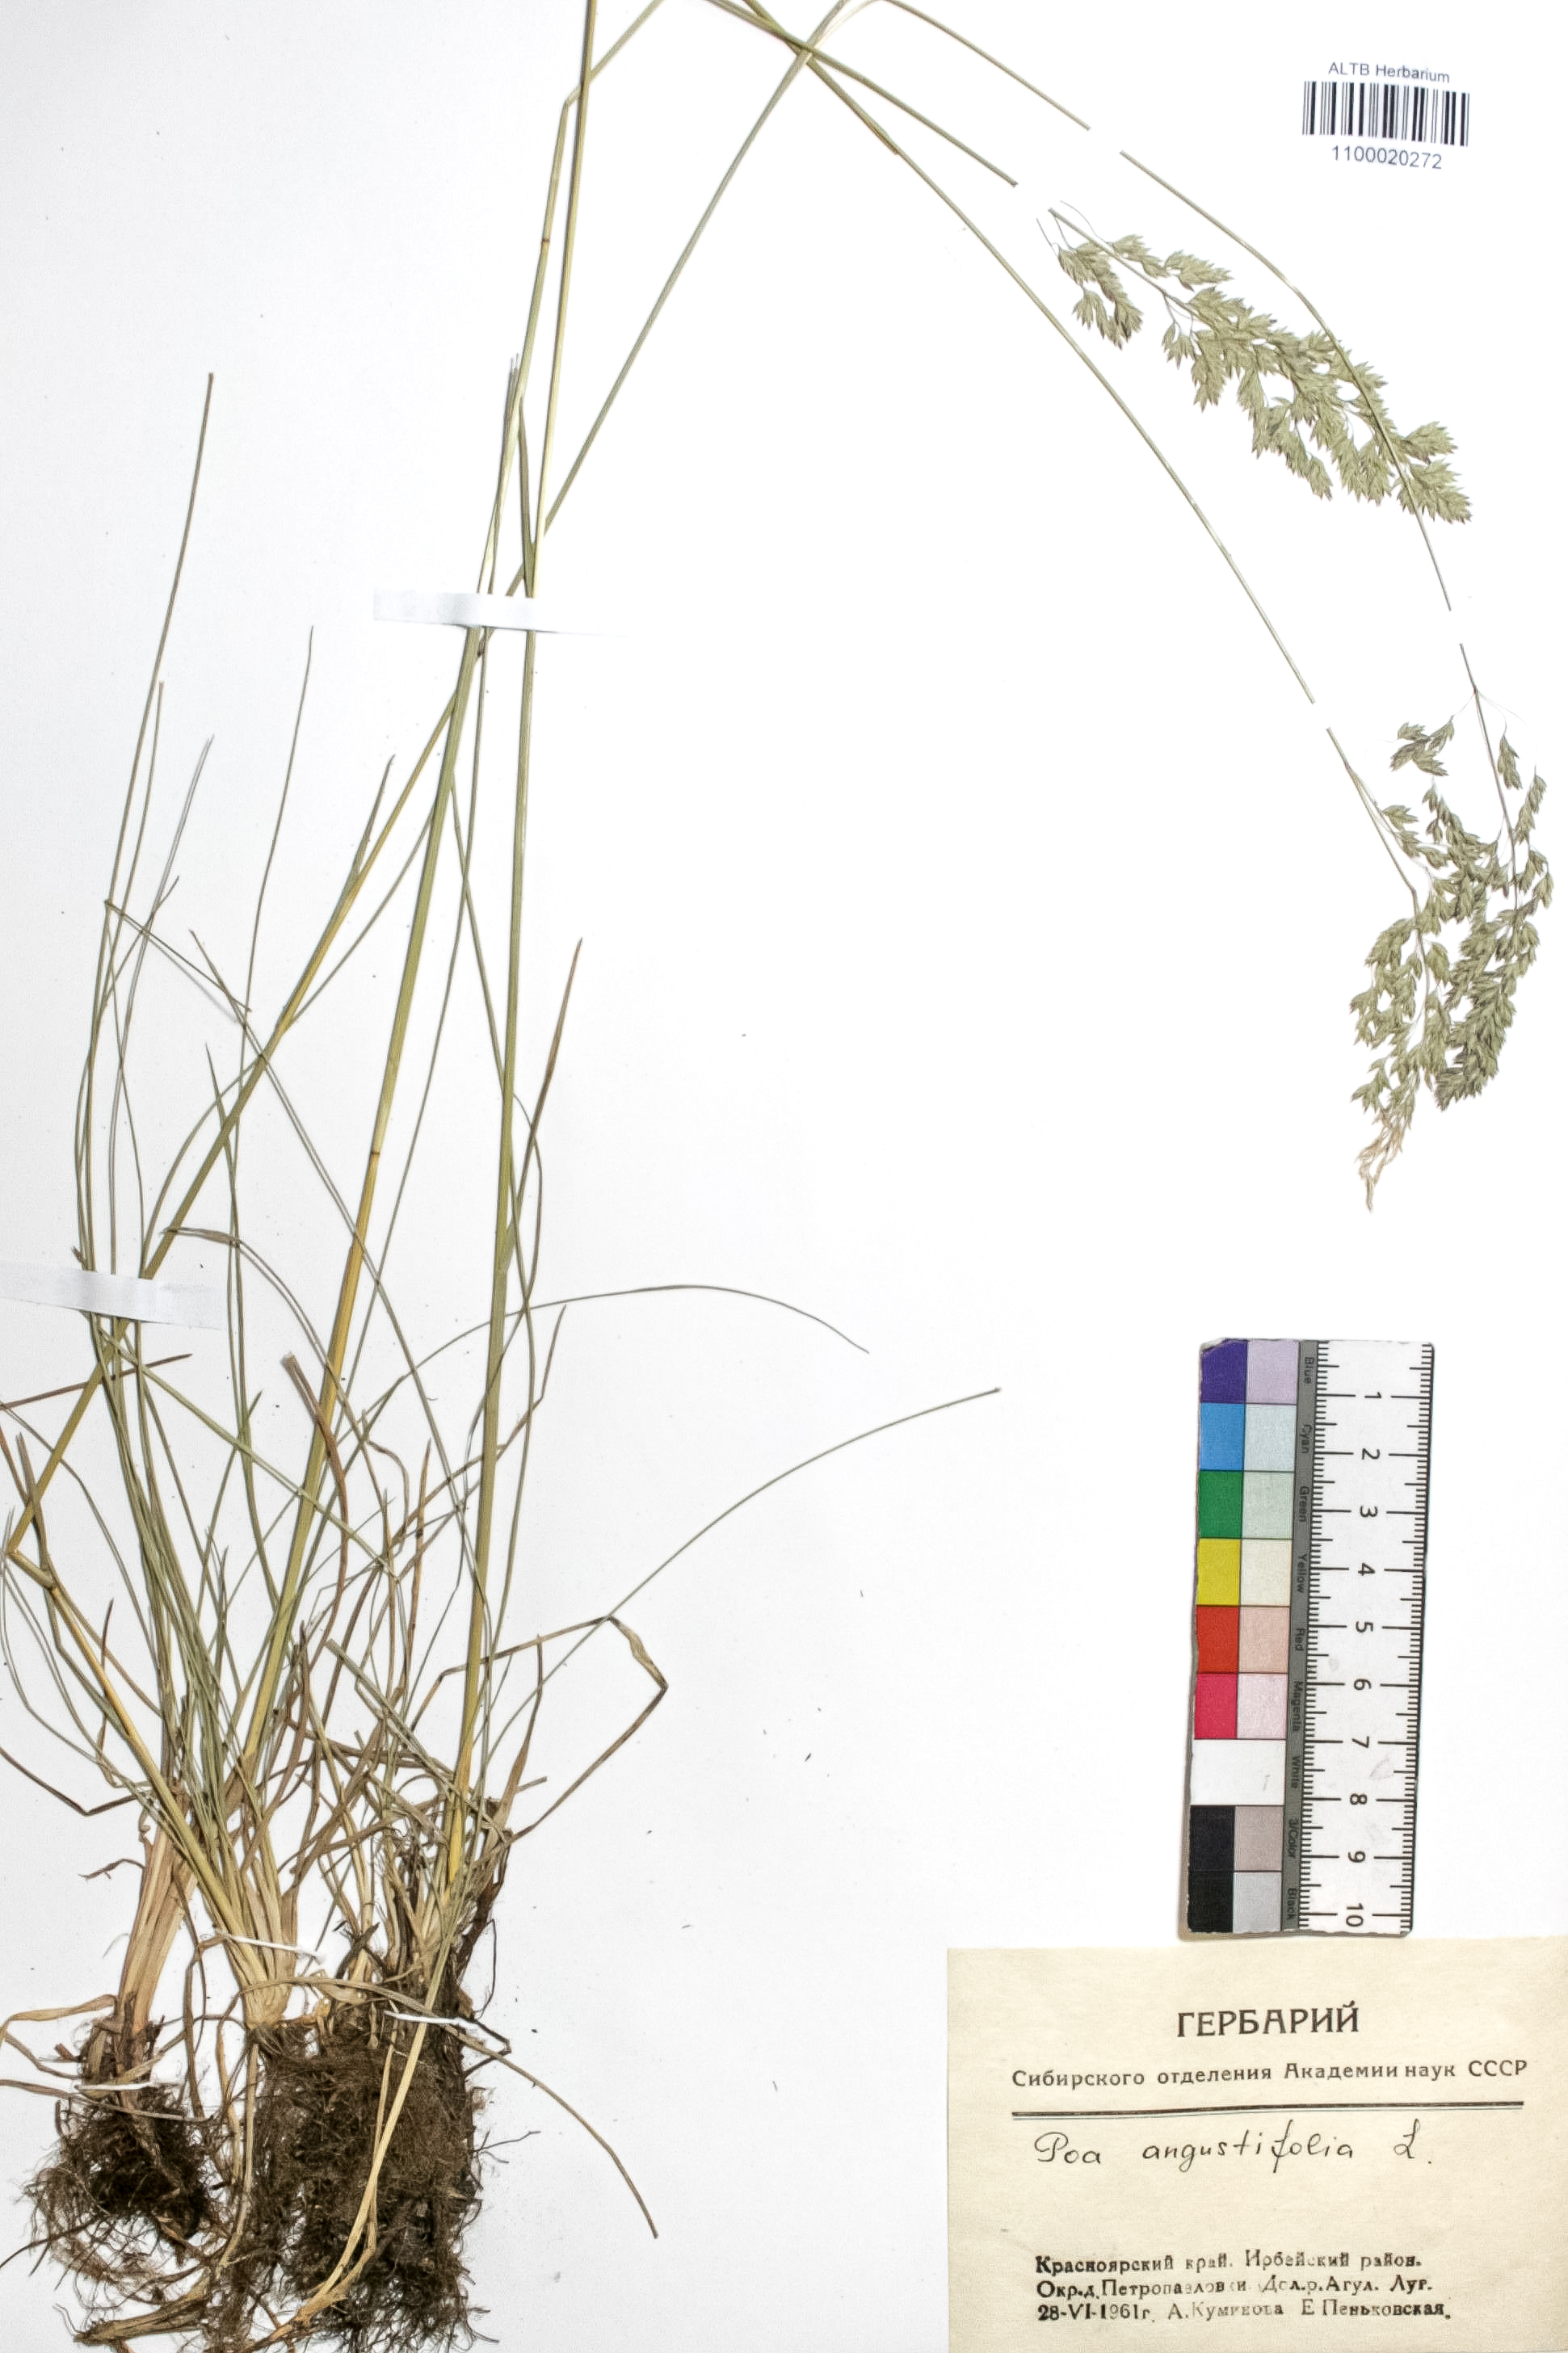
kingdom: Plantae
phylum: Tracheophyta
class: Liliopsida
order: Poales
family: Poaceae
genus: Poa
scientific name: Poa angustifolia
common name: Narrow-leaved meadow-grass
